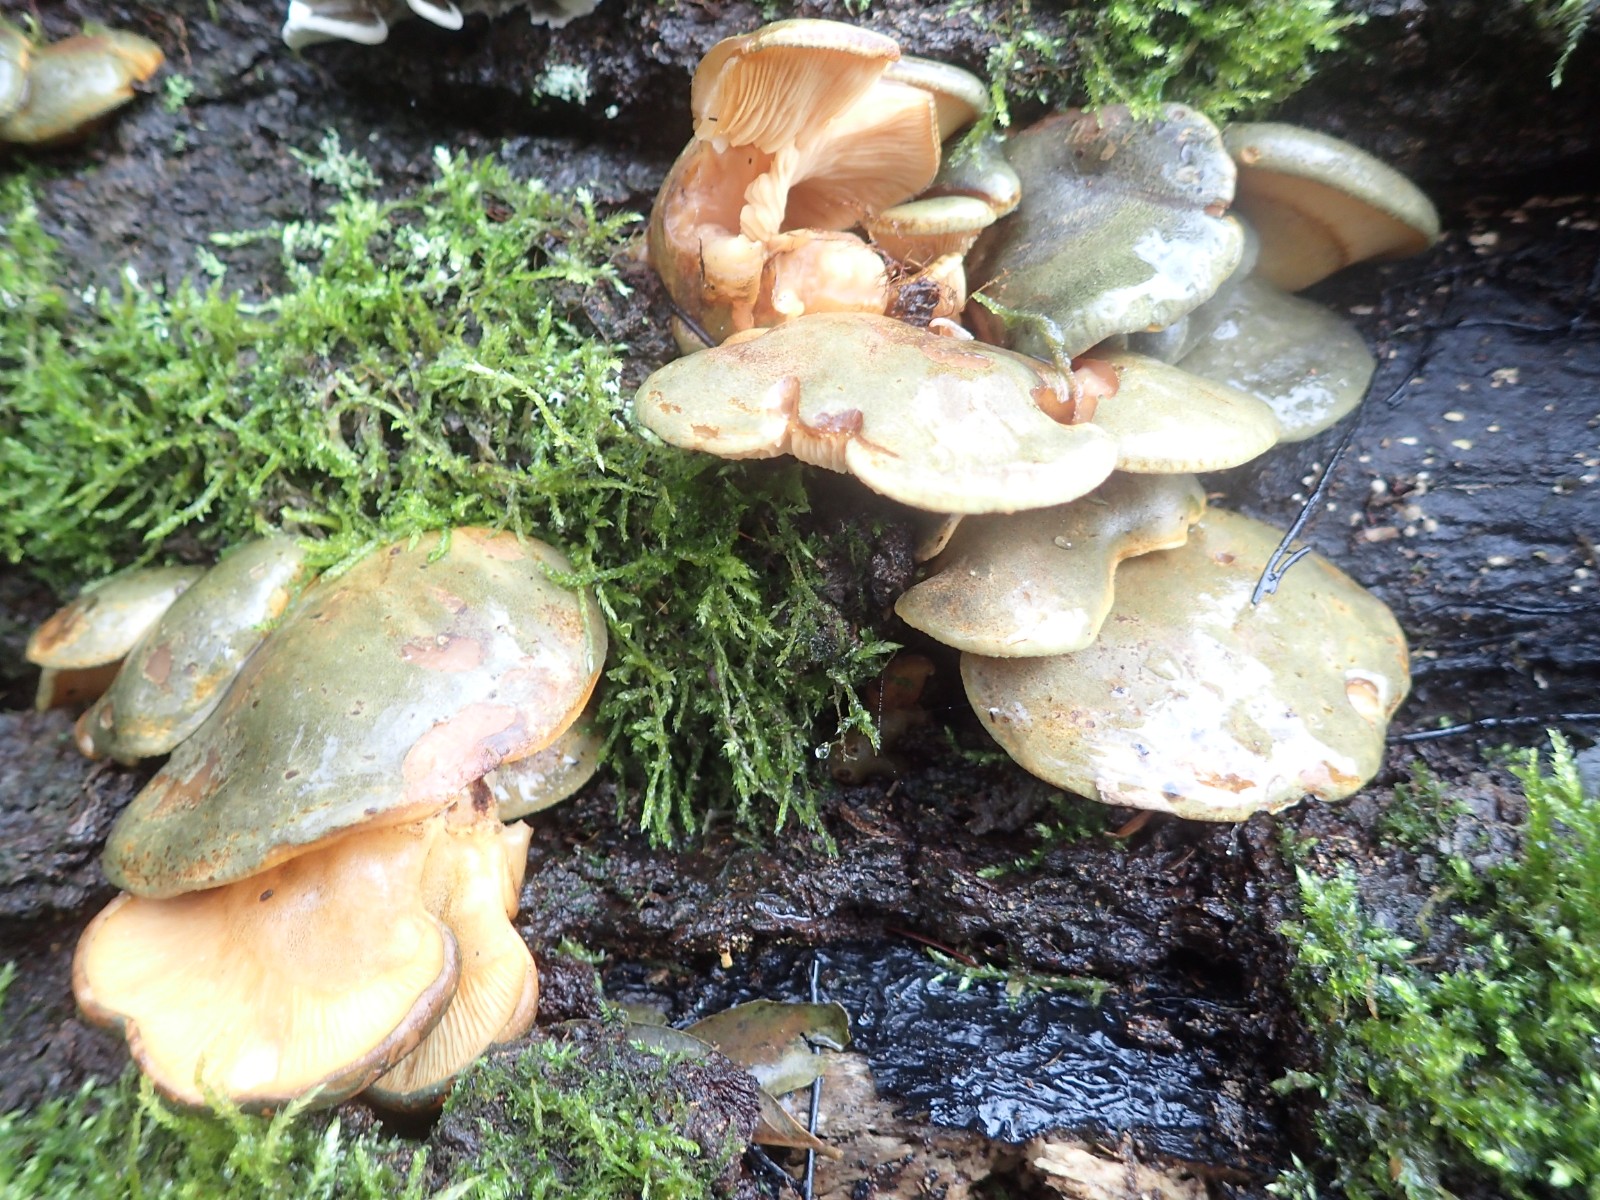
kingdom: Fungi
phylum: Basidiomycota
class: Agaricomycetes
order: Agaricales
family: Sarcomyxaceae
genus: Sarcomyxa
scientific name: Sarcomyxa serotina
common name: gummihat
